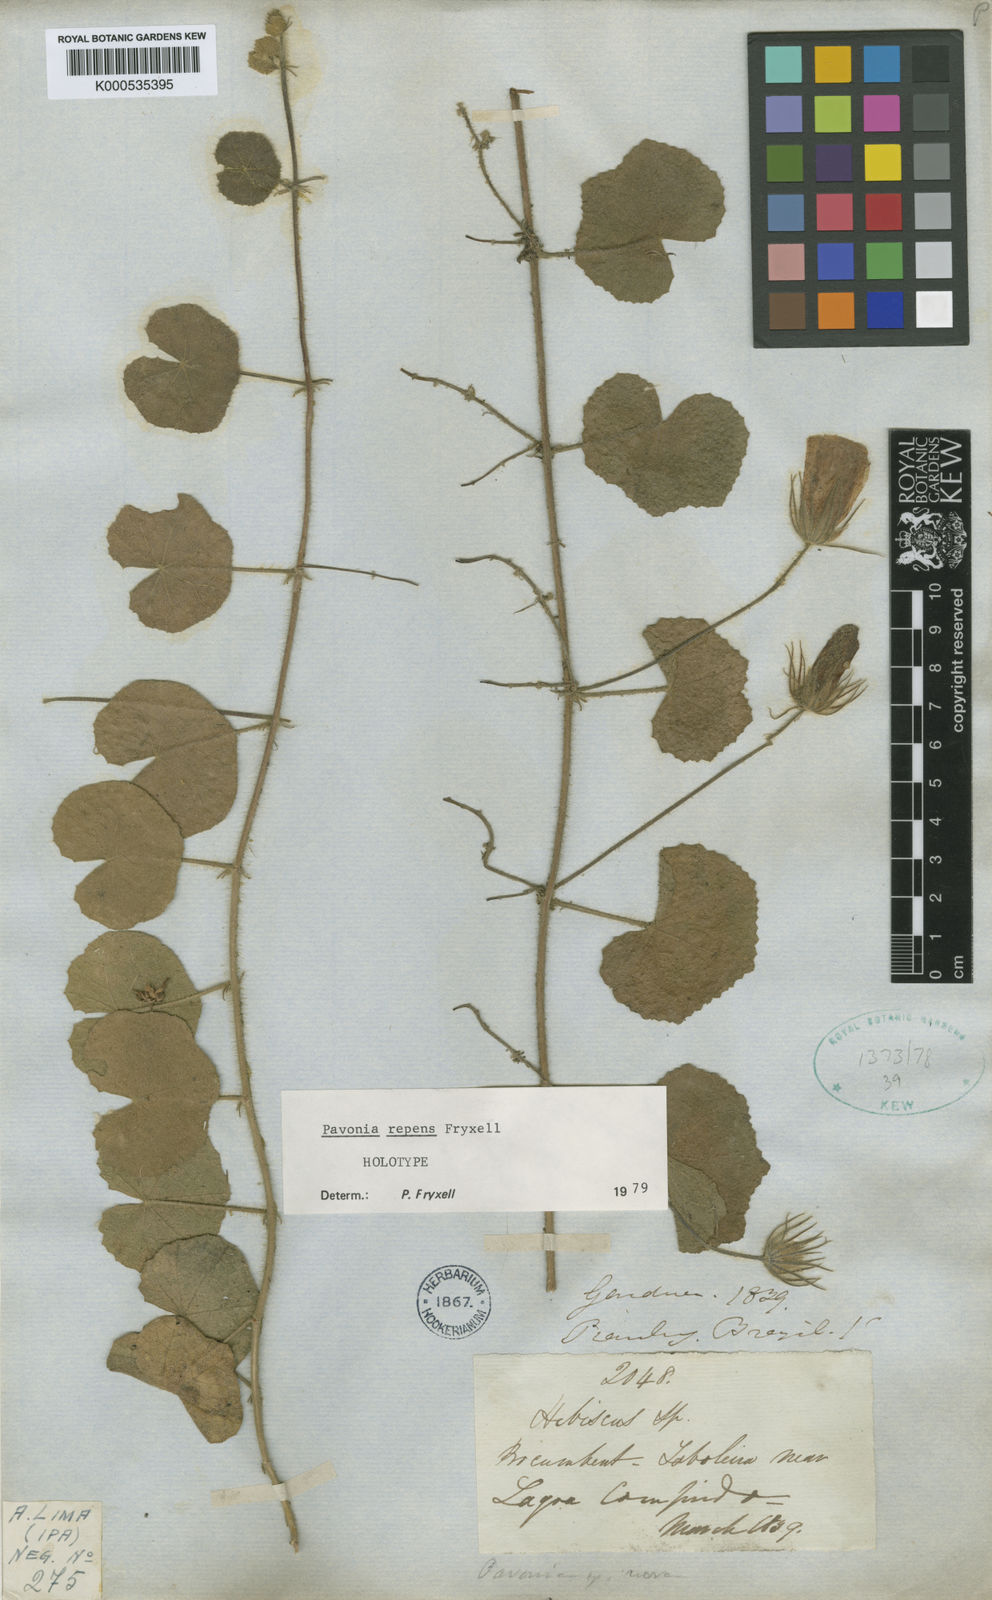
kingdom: Plantae
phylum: Tracheophyta
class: Magnoliopsida
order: Malvales
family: Malvaceae
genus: Pavonia
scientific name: Pavonia repens
